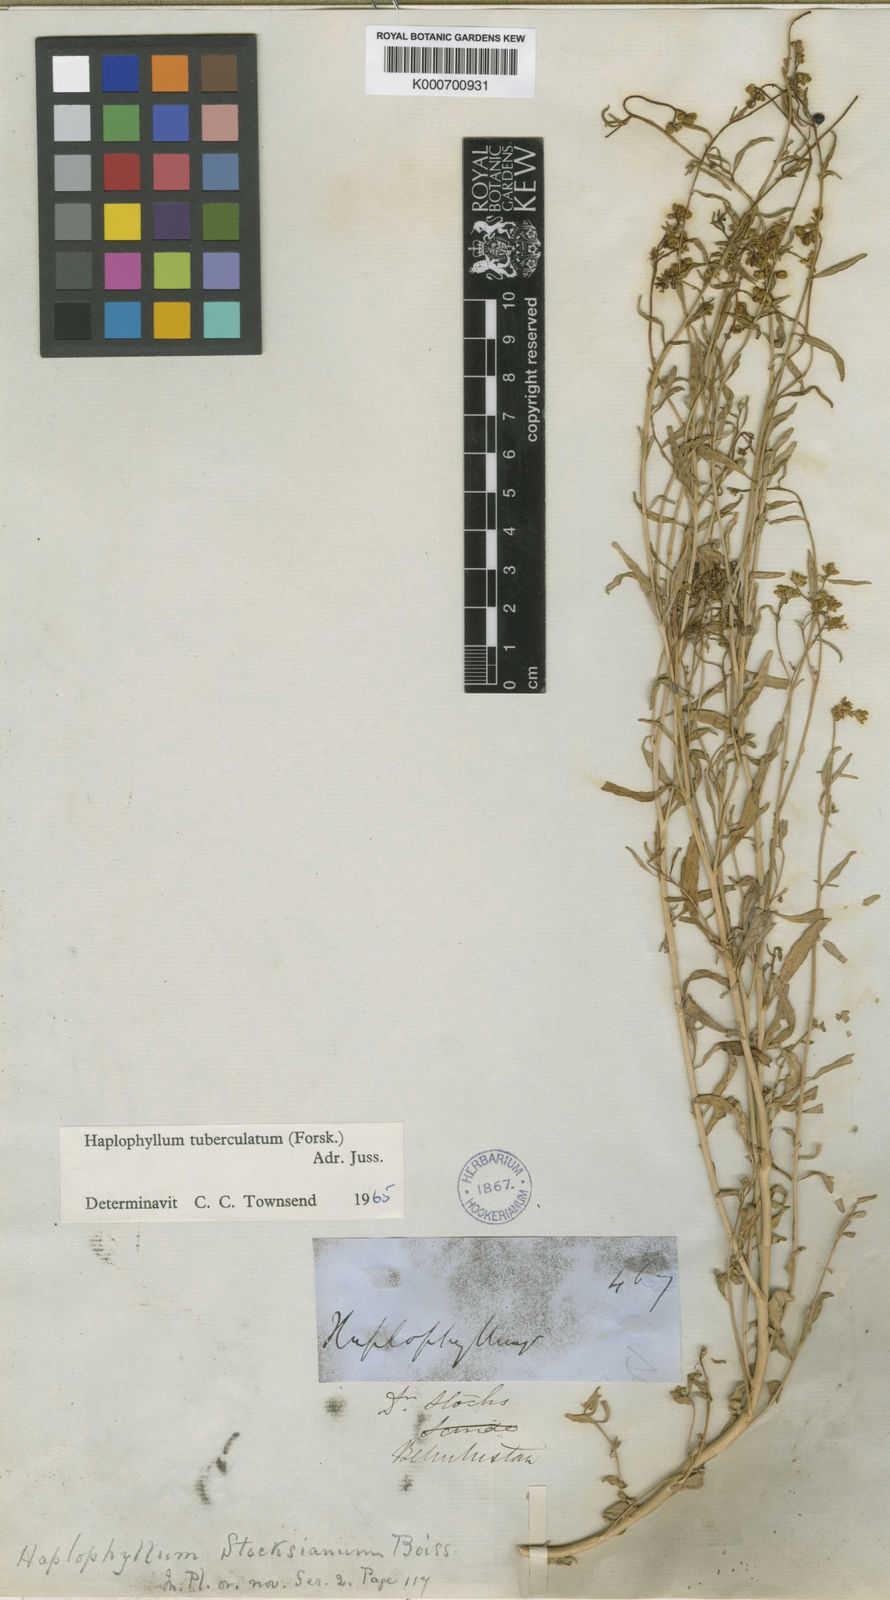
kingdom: Plantae
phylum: Tracheophyta
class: Magnoliopsida
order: Sapindales
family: Rutaceae
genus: Haplophyllum
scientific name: Haplophyllum tuberculatum
